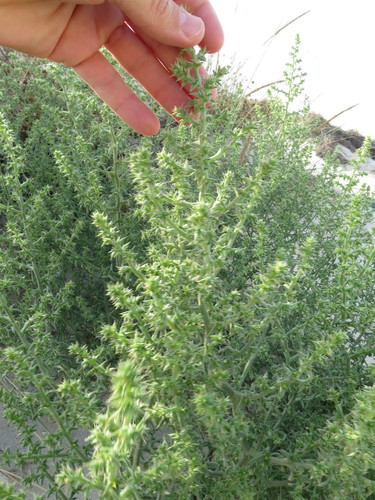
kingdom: Plantae
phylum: Tracheophyta
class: Magnoliopsida
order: Caryophyllales
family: Amaranthaceae
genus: Salsola
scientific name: Salsola kali
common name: Saltwort
